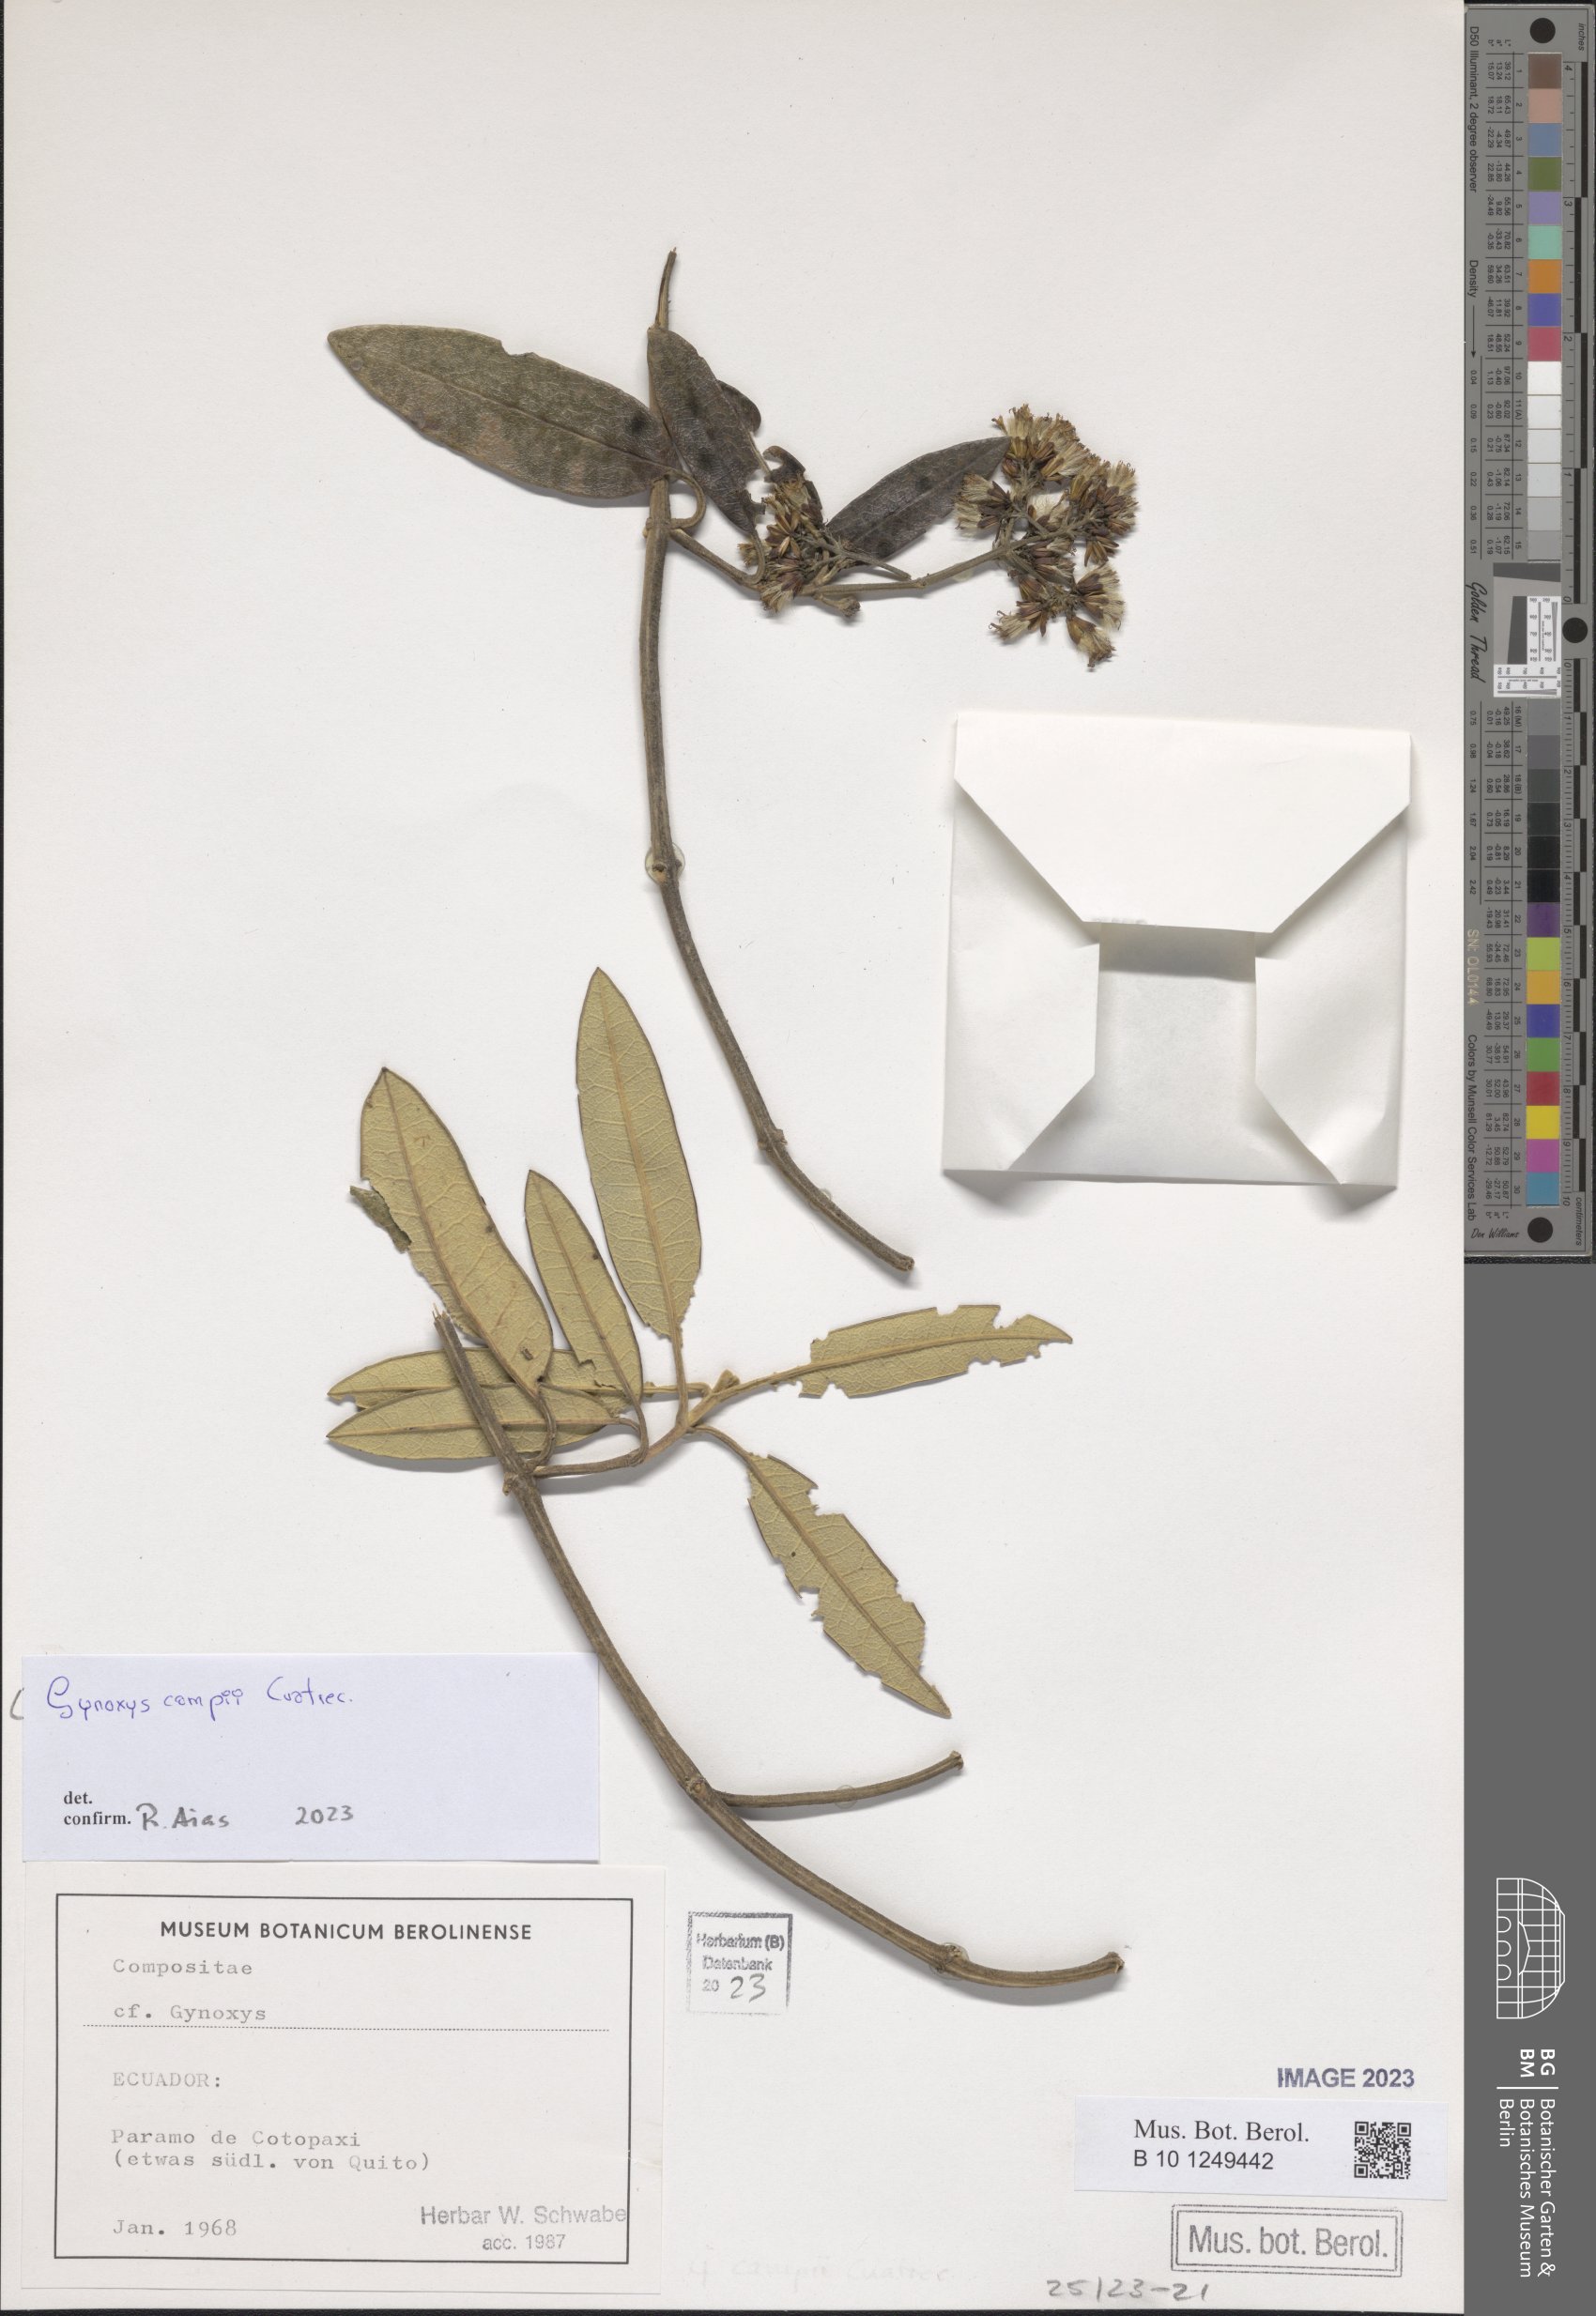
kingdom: Plantae
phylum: Tracheophyta
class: Magnoliopsida
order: Asterales
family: Asteraceae
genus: Gynoxys
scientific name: Gynoxys campii
